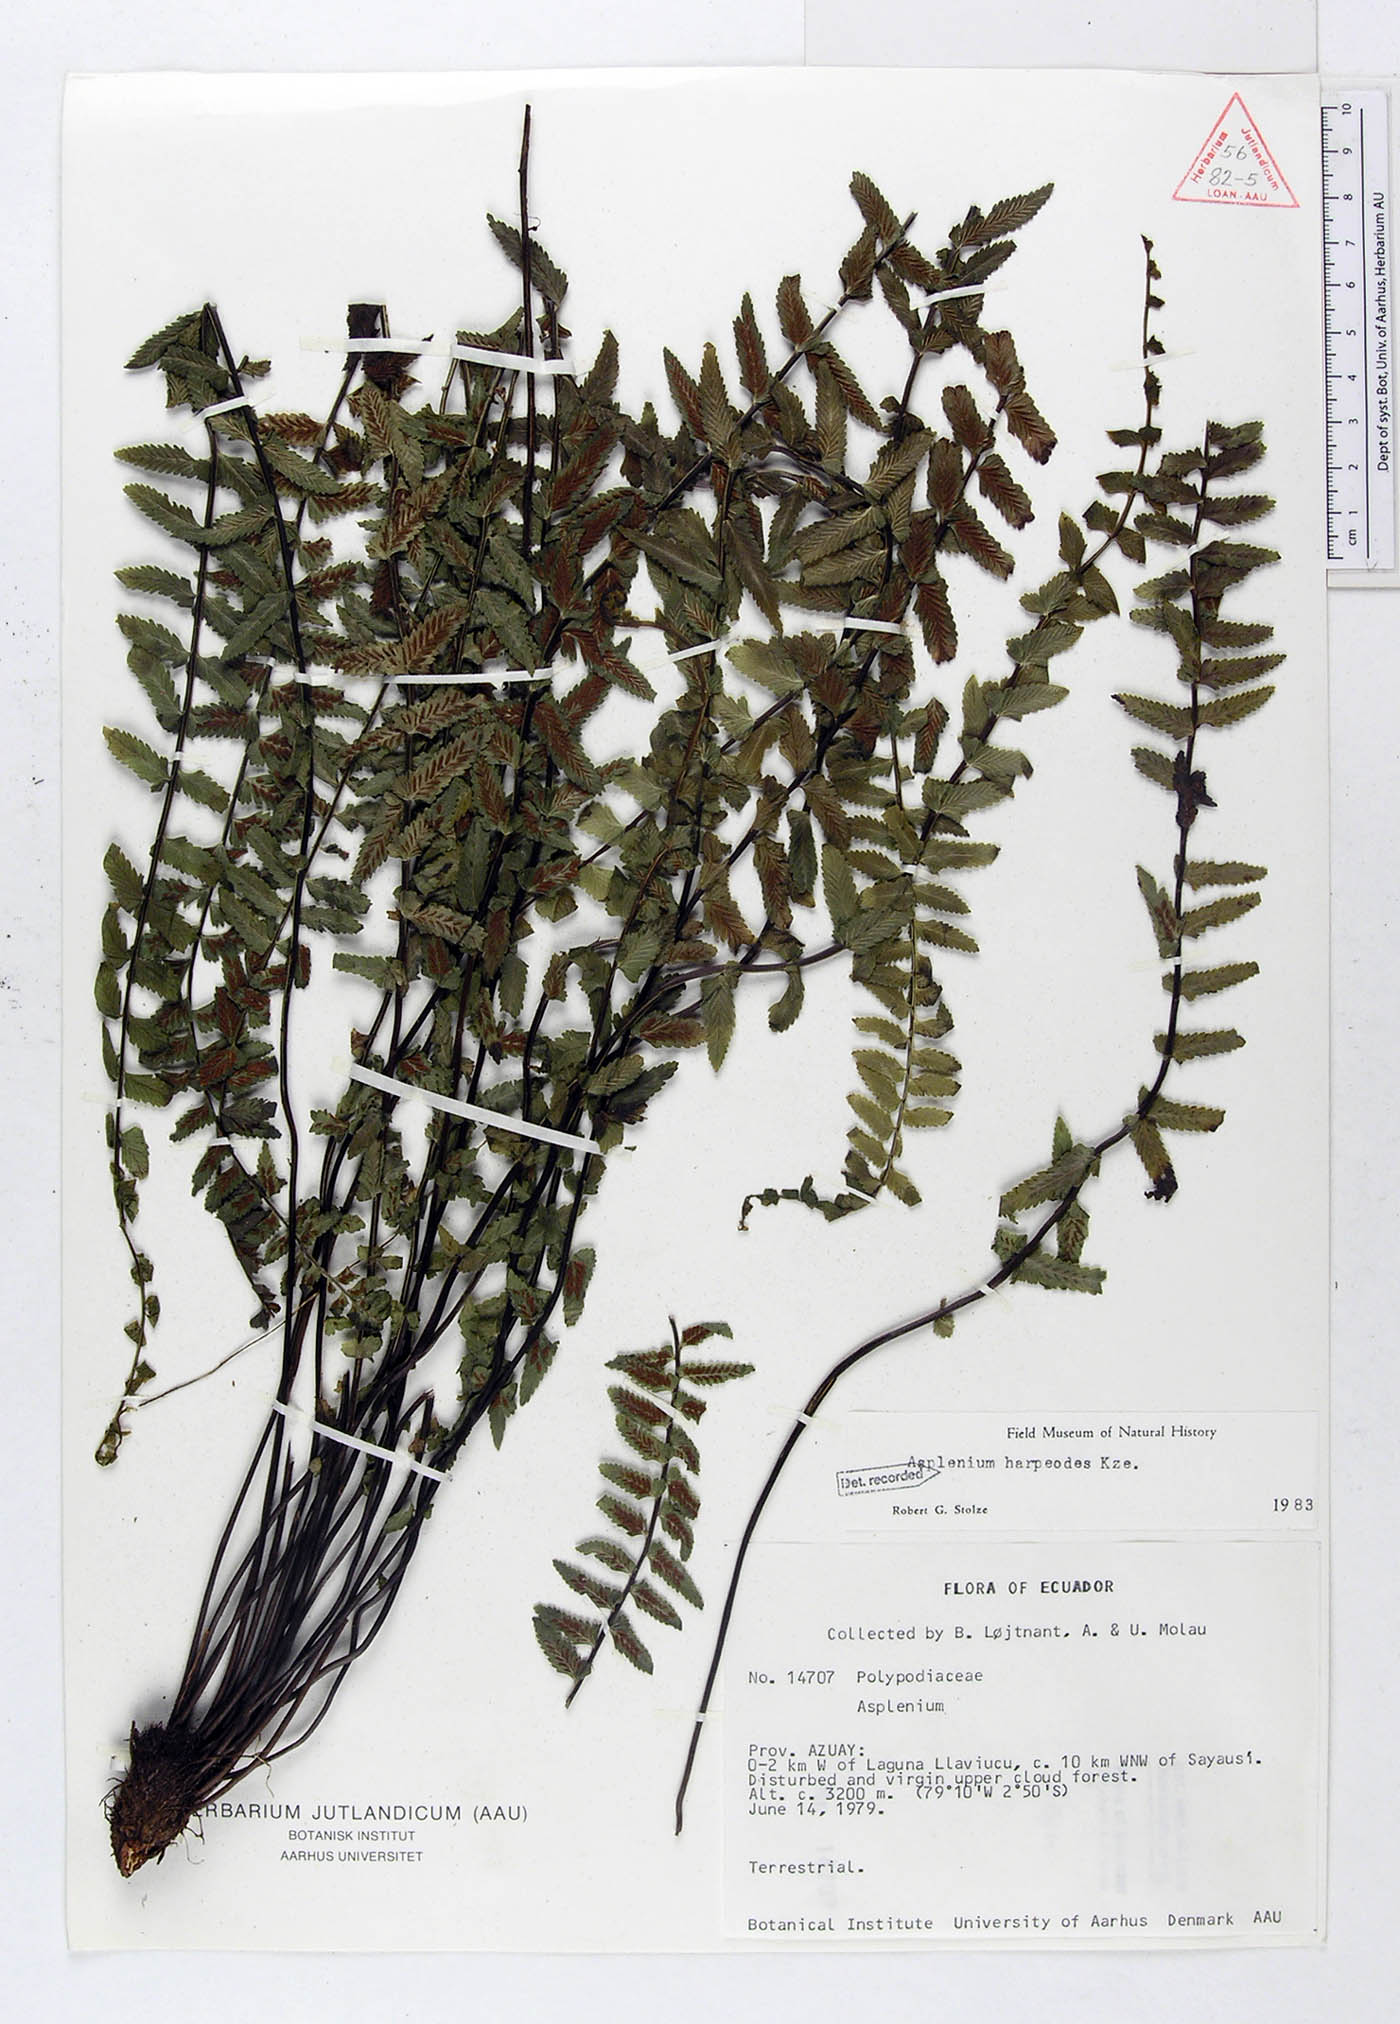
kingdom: Plantae
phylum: Tracheophyta
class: Polypodiopsida
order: Polypodiales
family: Aspleniaceae
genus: Asplenium
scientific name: Asplenium harpeodes
